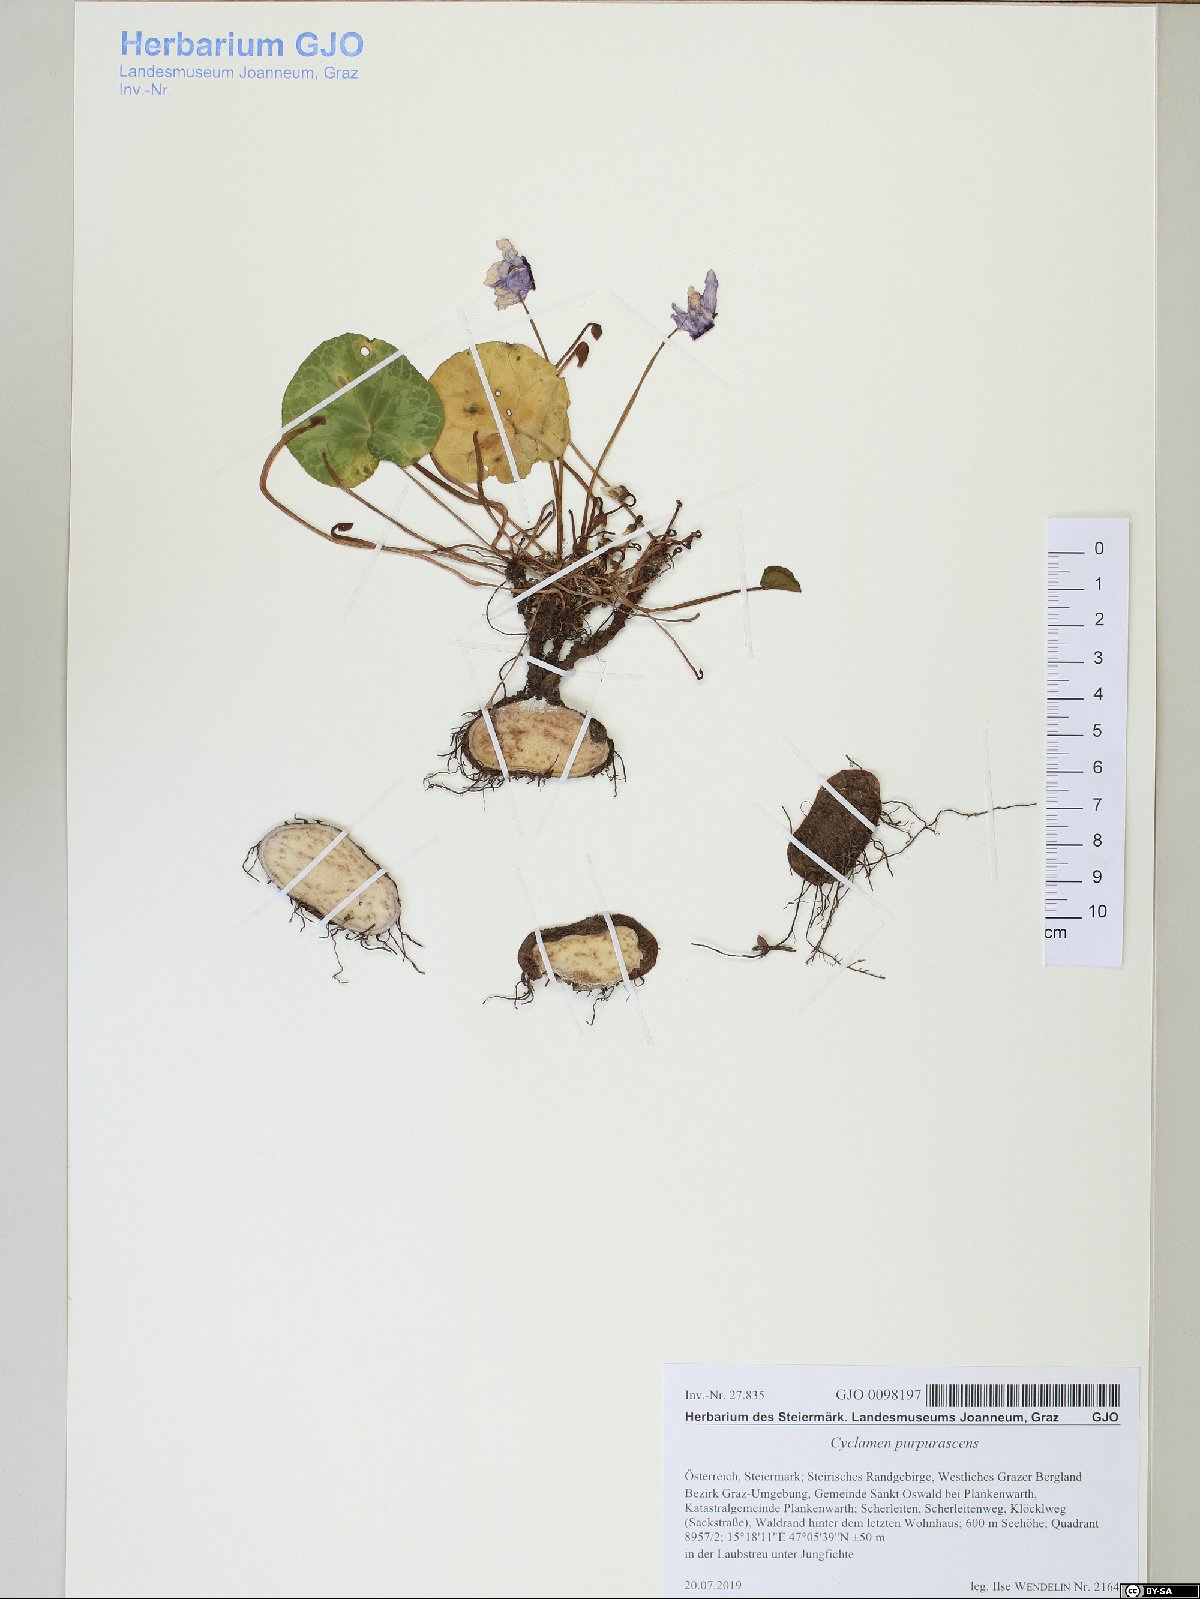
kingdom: Plantae
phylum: Tracheophyta
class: Magnoliopsida
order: Ericales
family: Primulaceae
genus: Cyclamen
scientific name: Cyclamen purpurascens
